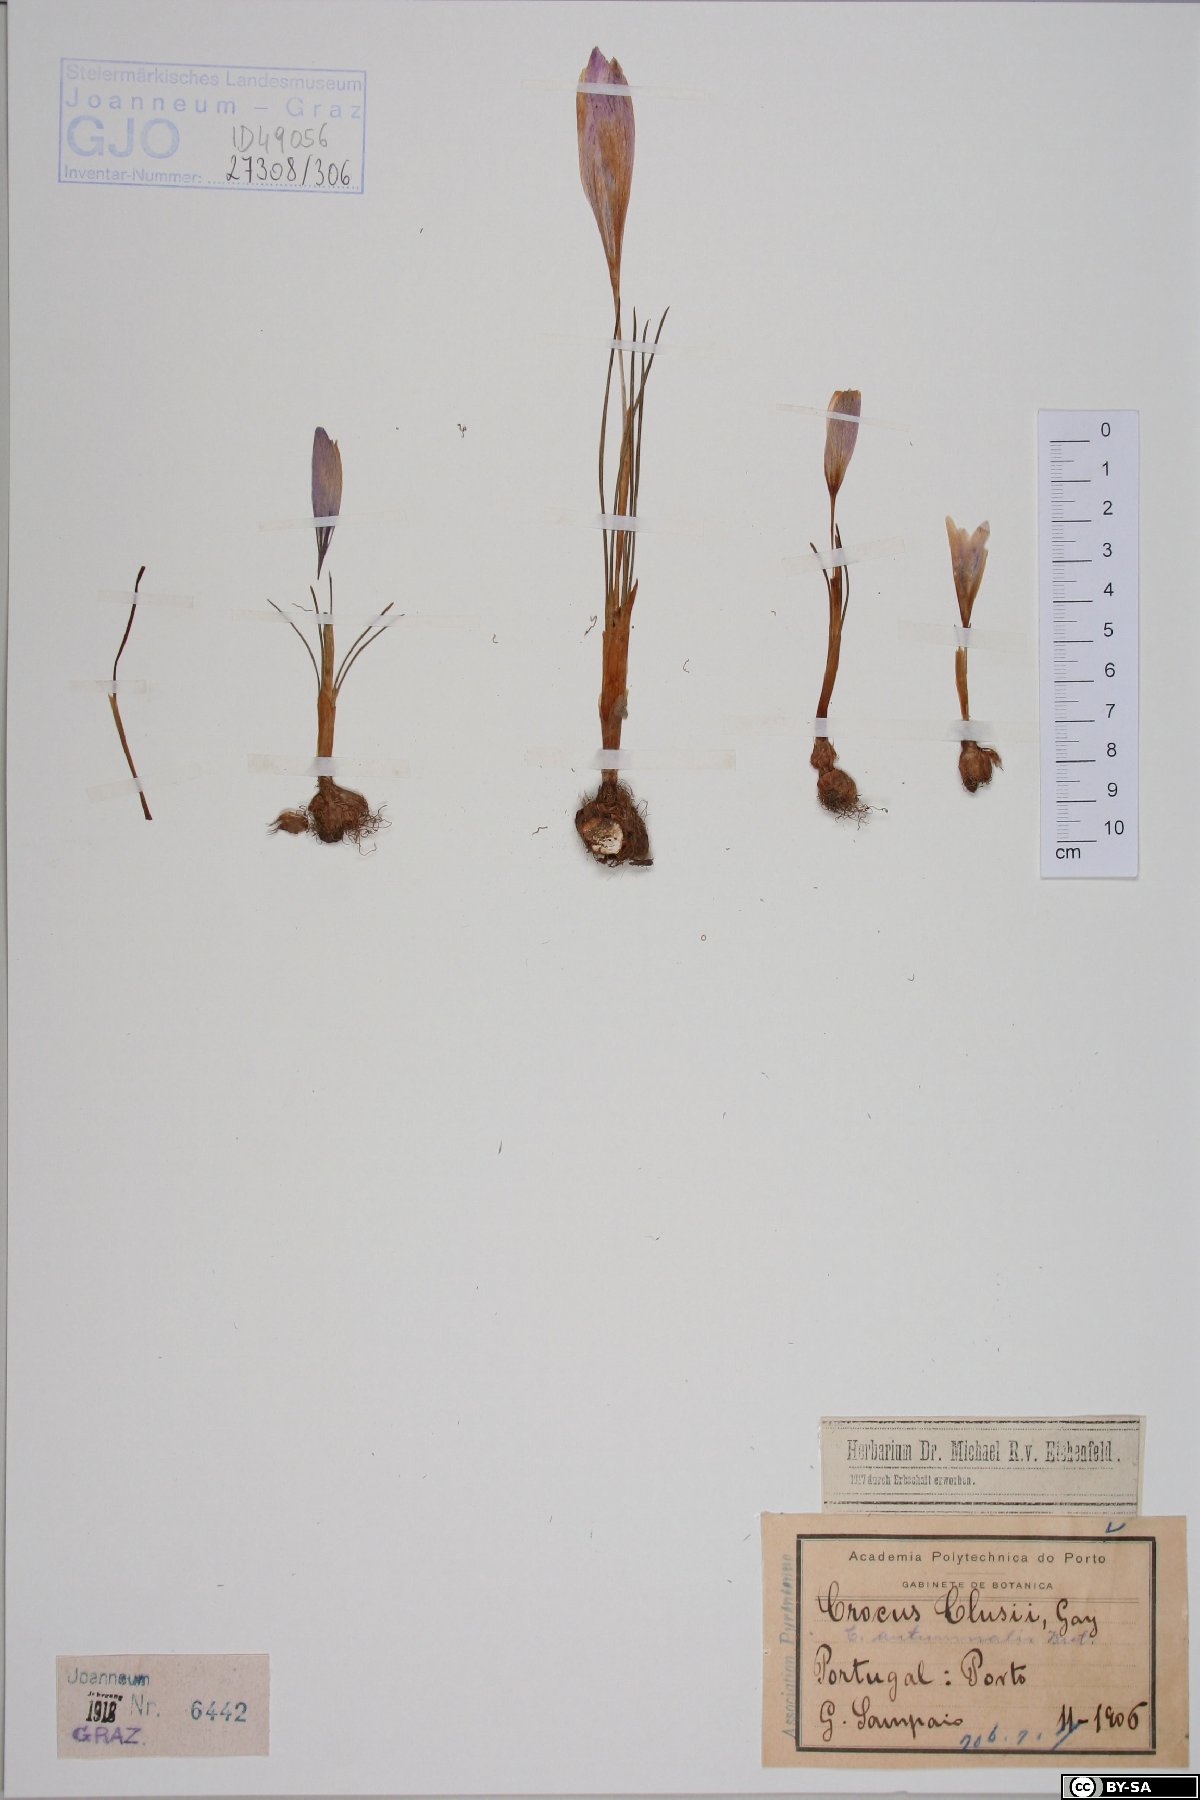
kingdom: Plantae
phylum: Tracheophyta
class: Liliopsida
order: Asparagales
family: Iridaceae
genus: Crocus
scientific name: Crocus clusii
